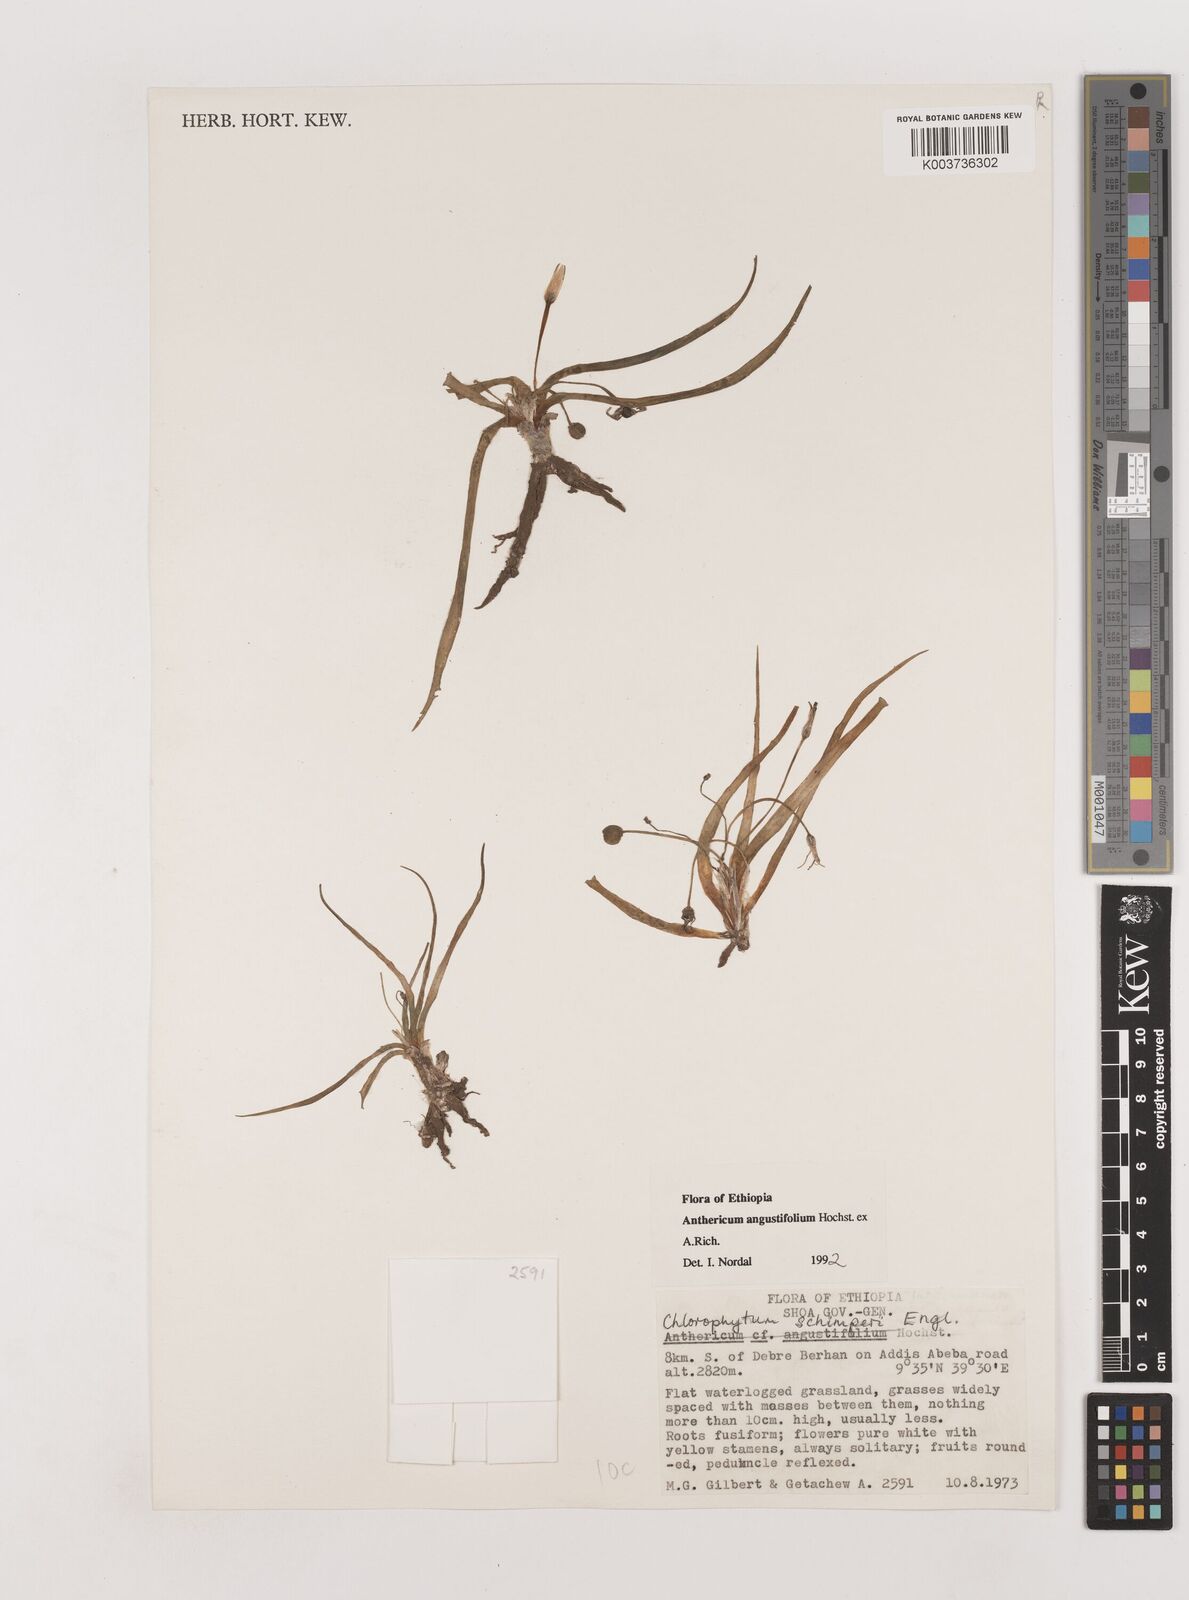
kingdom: Plantae
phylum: Tracheophyta
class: Liliopsida
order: Asparagales
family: Asparagaceae
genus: Anthericum
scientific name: Anthericum angustifolium
